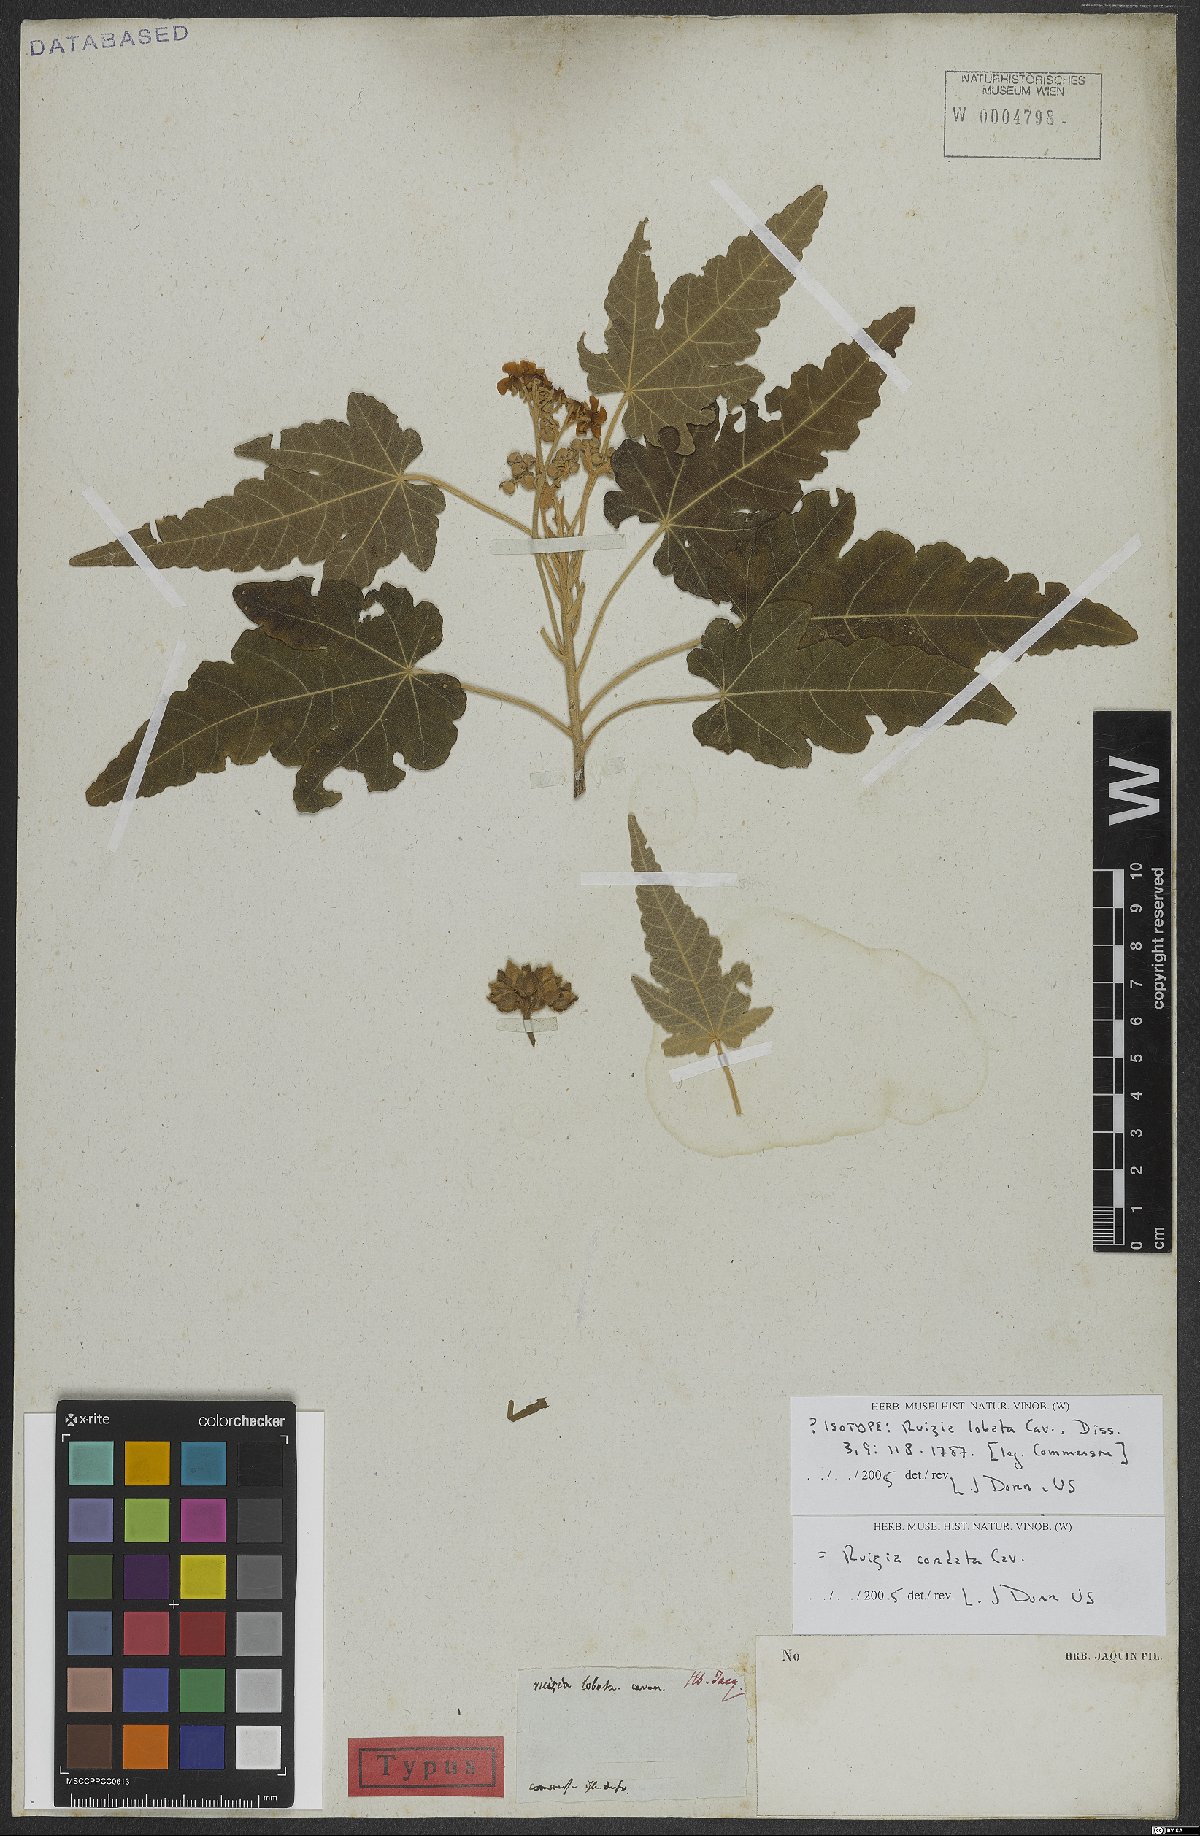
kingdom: Plantae
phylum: Tracheophyta
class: Magnoliopsida
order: Malvales
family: Malvaceae
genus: Ruizia
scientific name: Ruizia cordata
